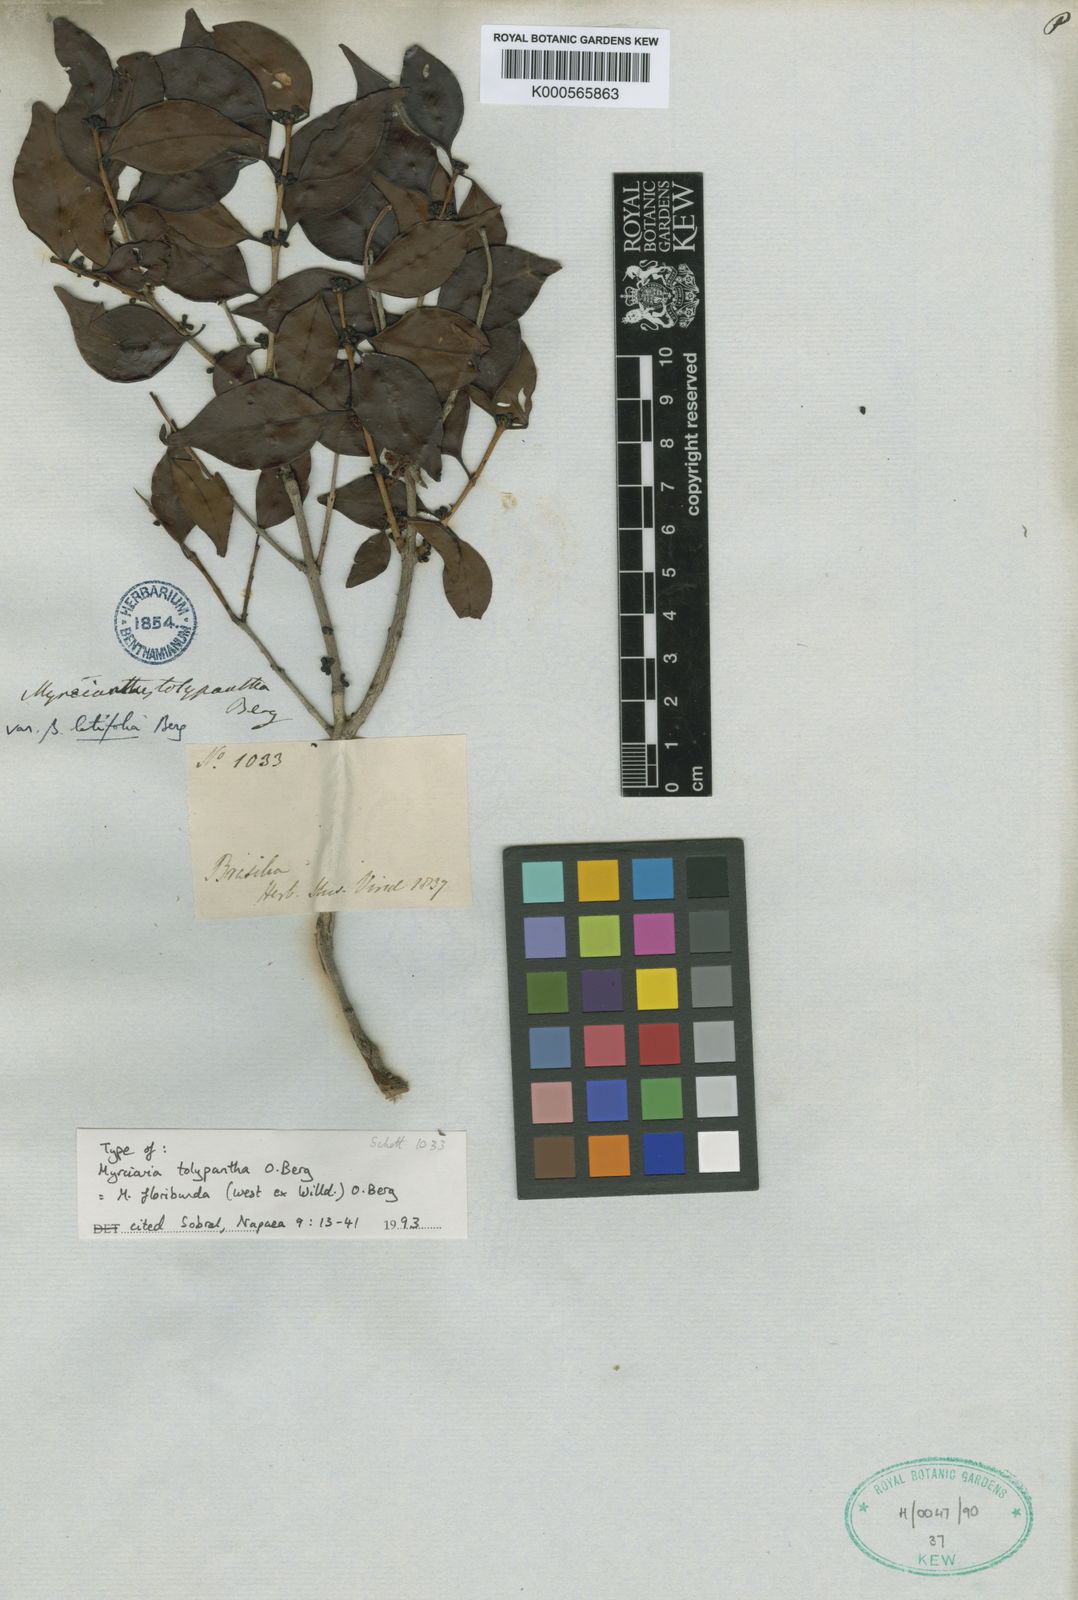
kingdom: Plantae
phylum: Tracheophyta
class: Magnoliopsida
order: Myrtales
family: Myrtaceae
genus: Myrciaria
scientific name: Myrciaria floribunda
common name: Guavaberry
